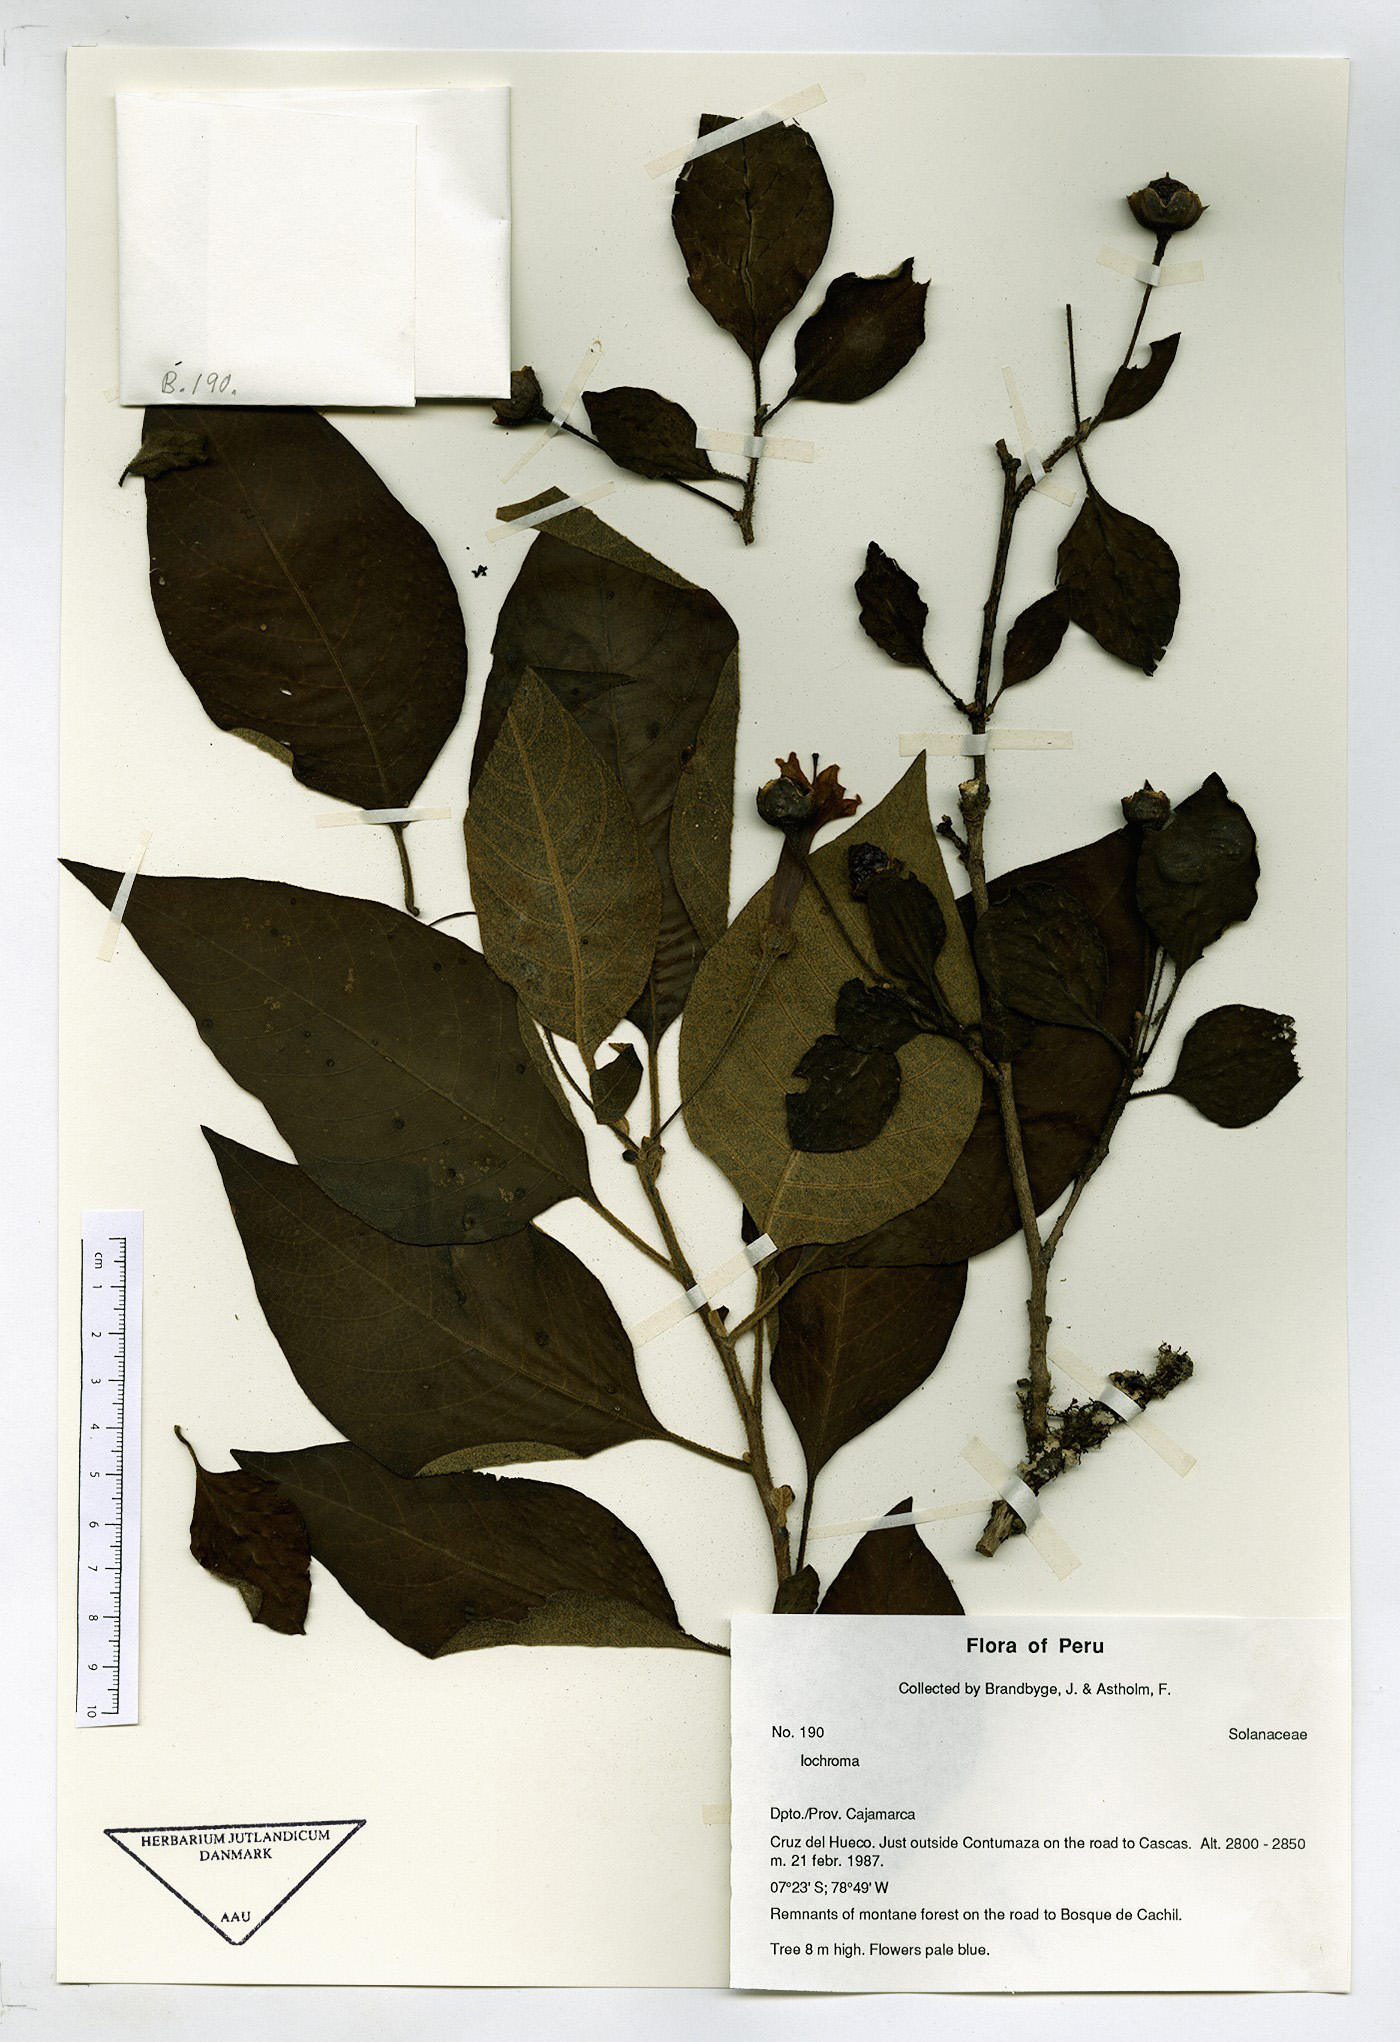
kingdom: Plantae
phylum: Tracheophyta
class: Magnoliopsida
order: Solanales
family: Solanaceae
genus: Iochroma
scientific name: Iochroma
